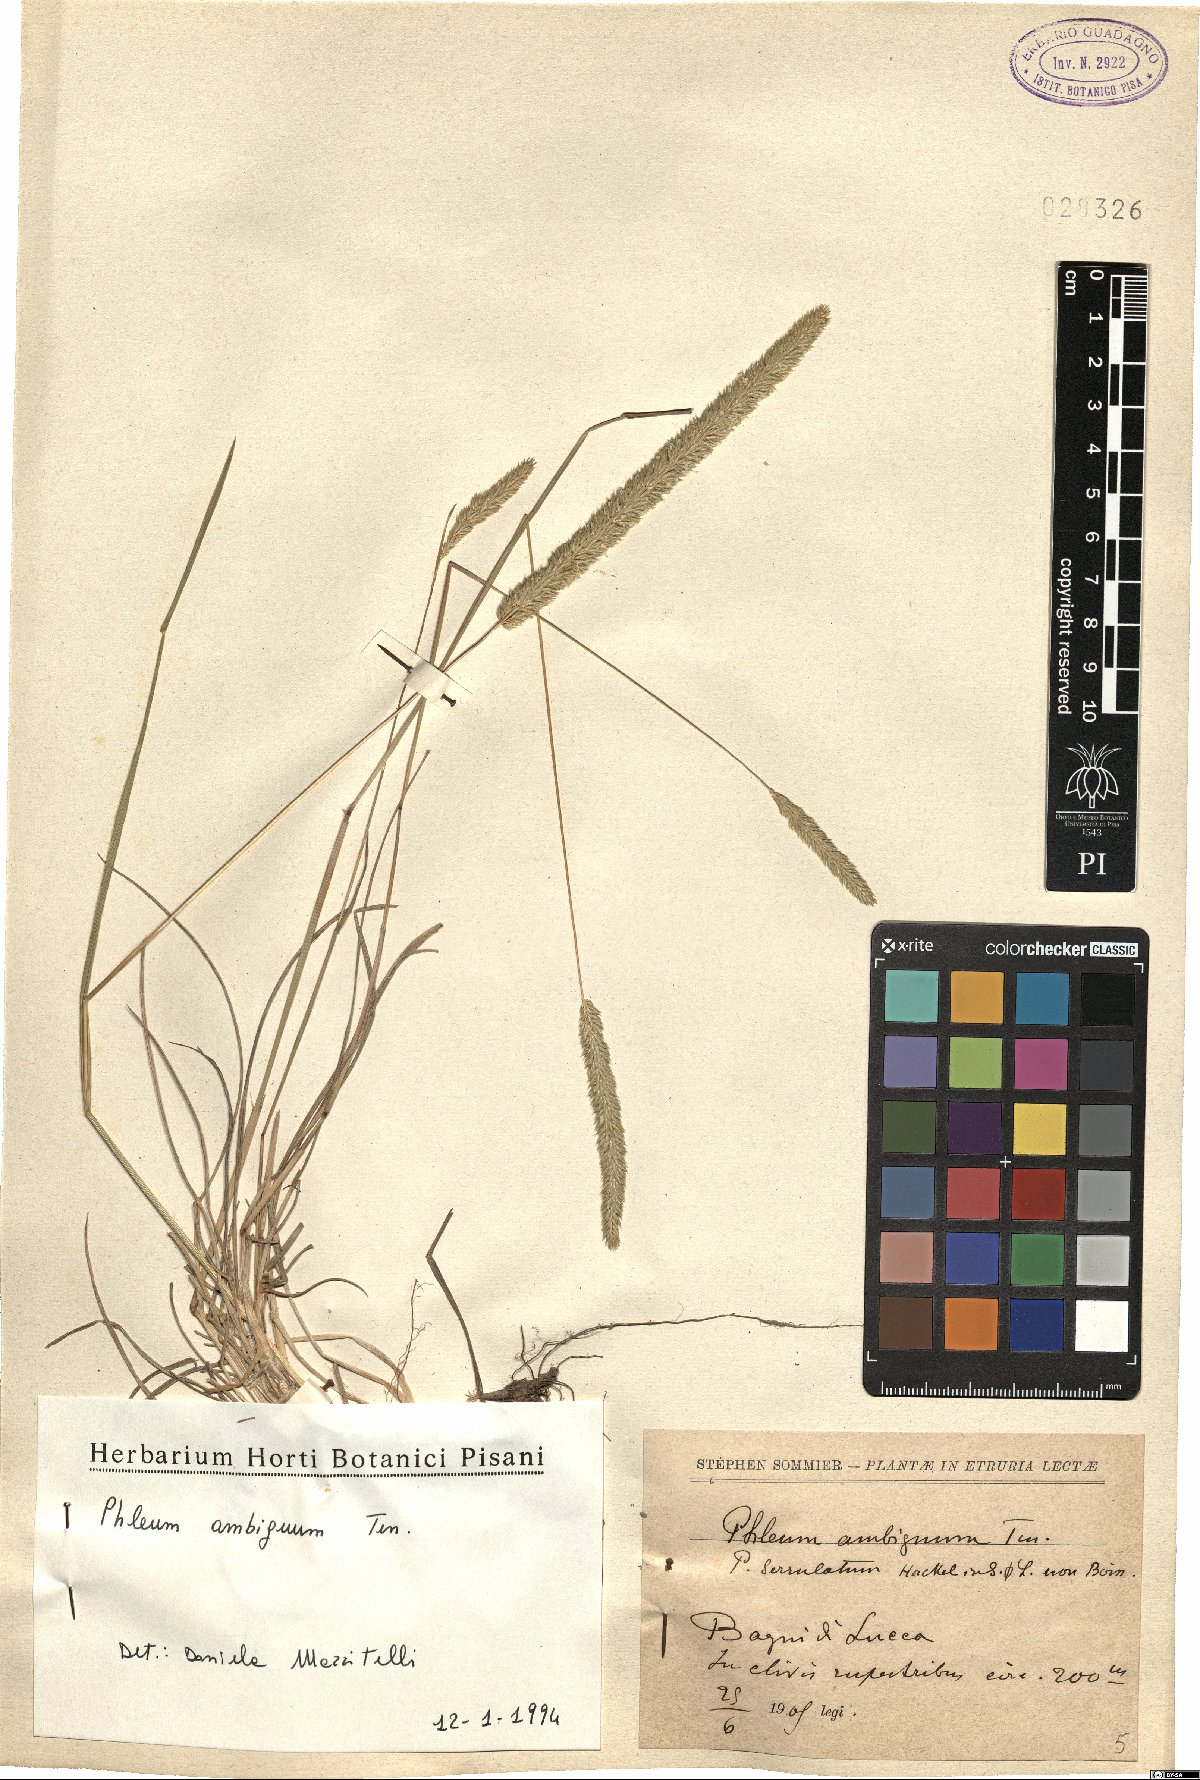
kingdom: Plantae
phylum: Tracheophyta
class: Liliopsida
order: Poales
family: Poaceae
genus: Phleum
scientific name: Phleum hirsutum
